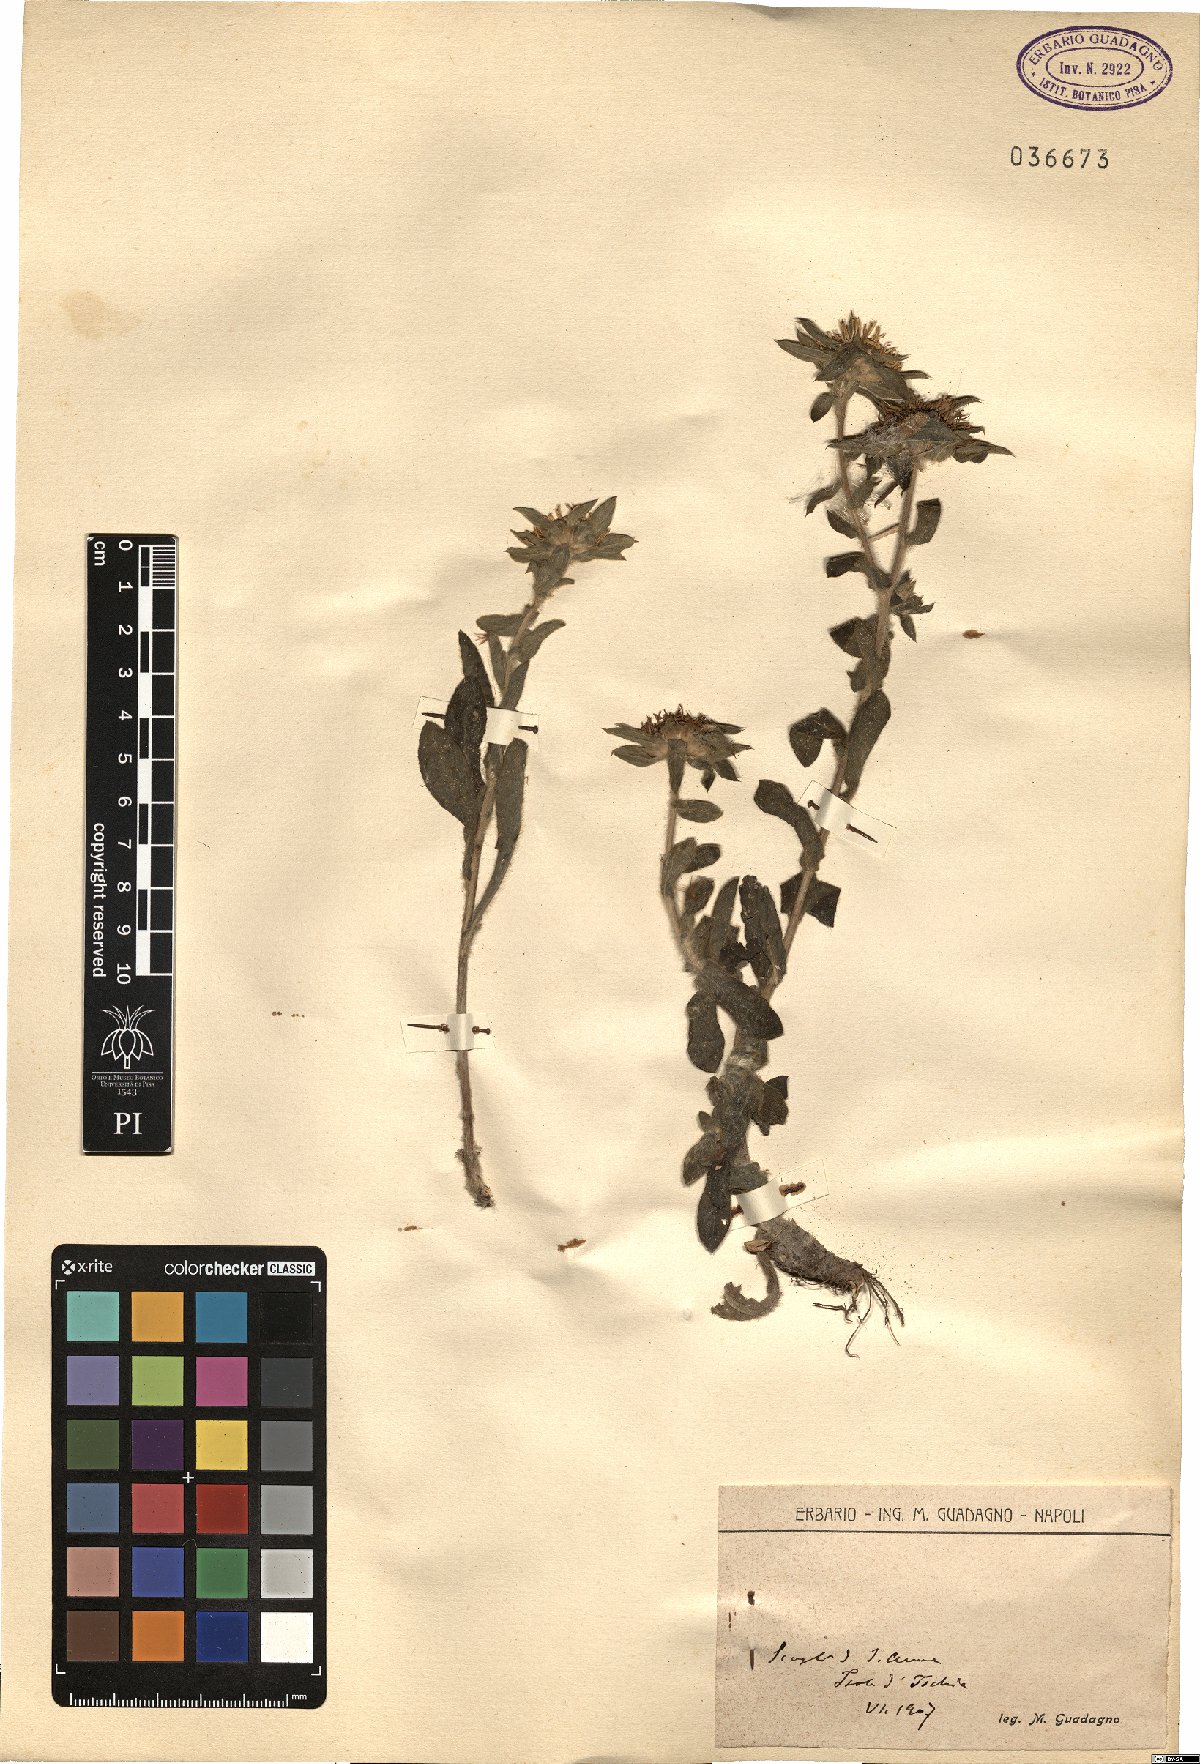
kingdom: Plantae
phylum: Tracheophyta
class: Magnoliopsida
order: Asterales
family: Asteraceae
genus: Asteriscus
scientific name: Asteriscus
